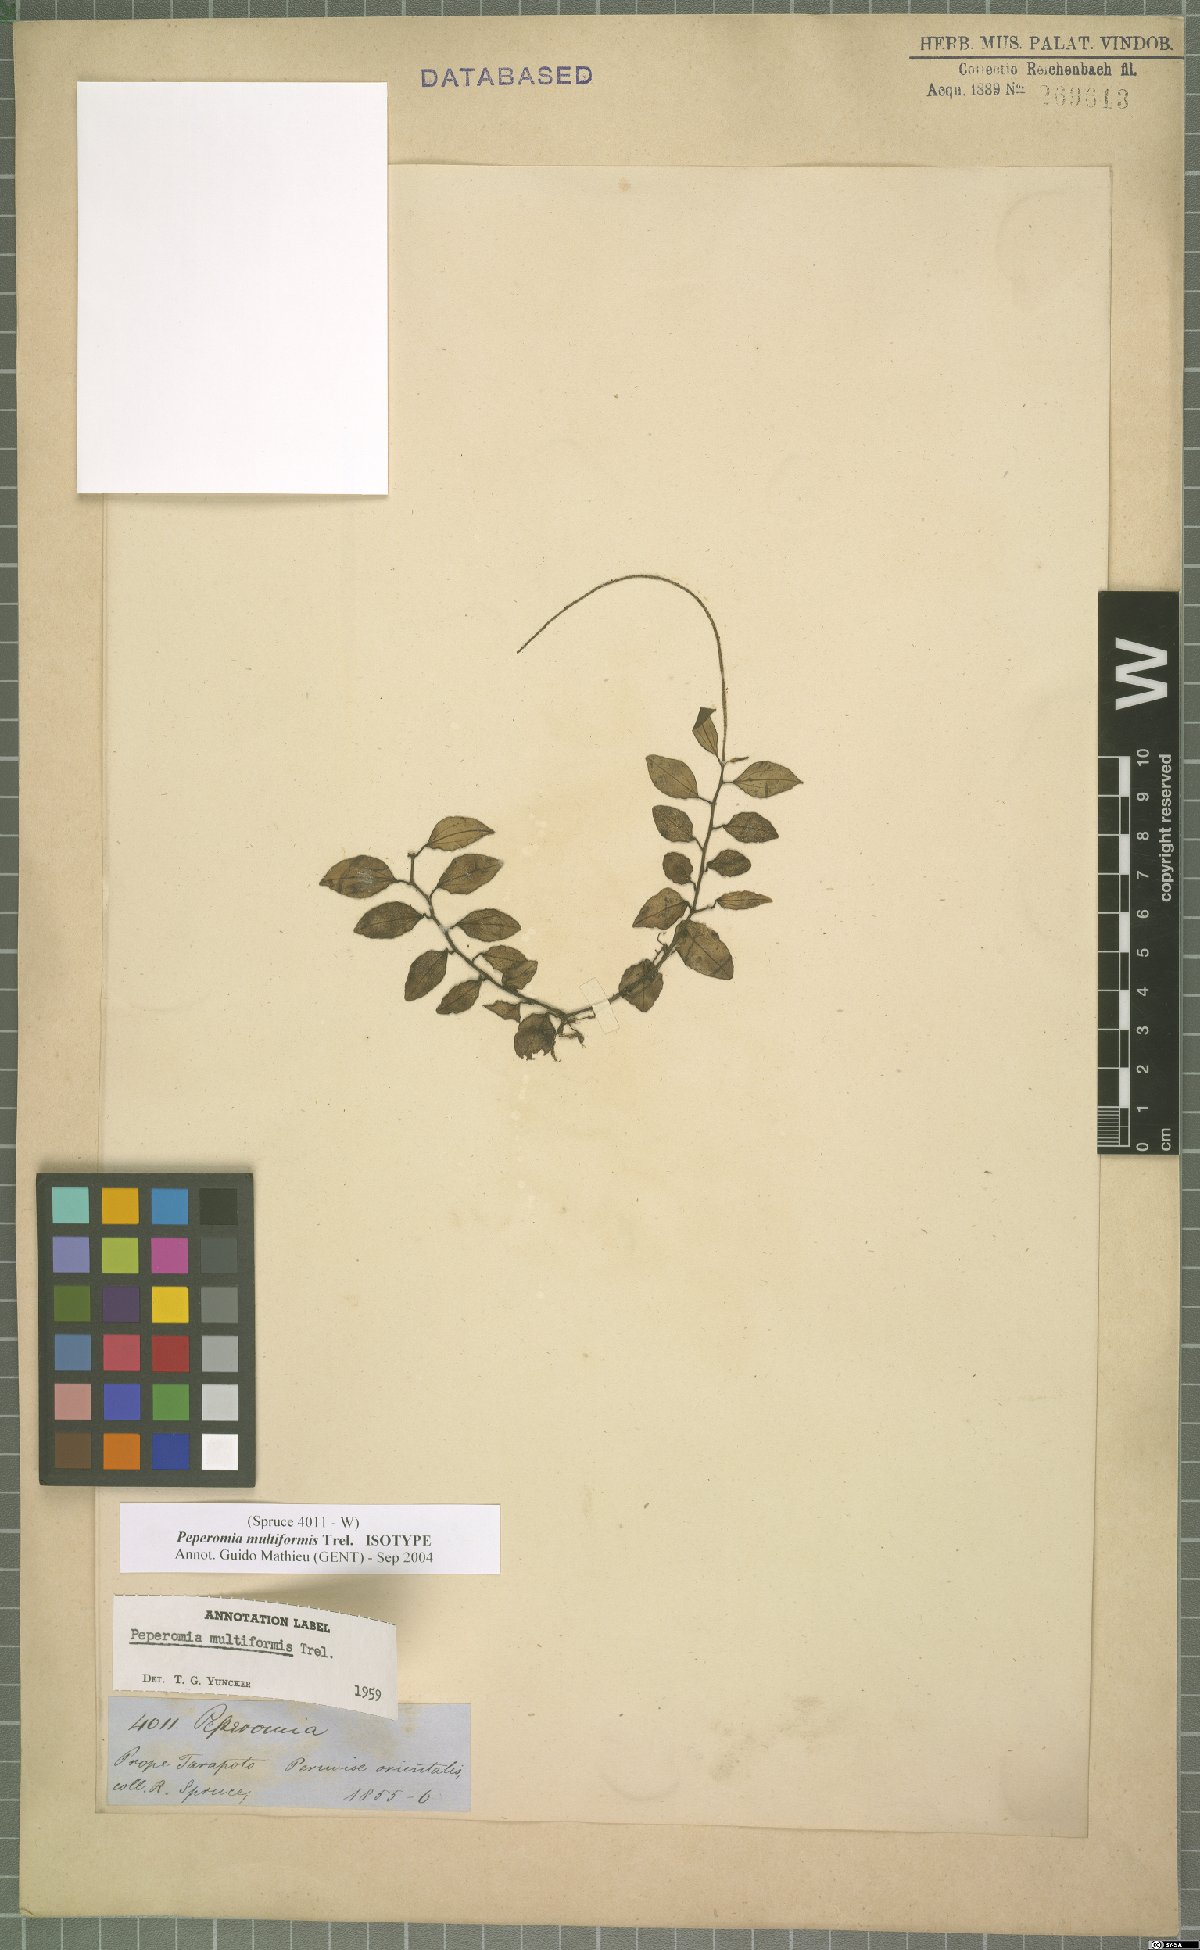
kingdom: Plantae
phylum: Tracheophyta
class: Magnoliopsida
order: Piperales
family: Piperaceae
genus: Peperomia
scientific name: Peperomia multiformis
